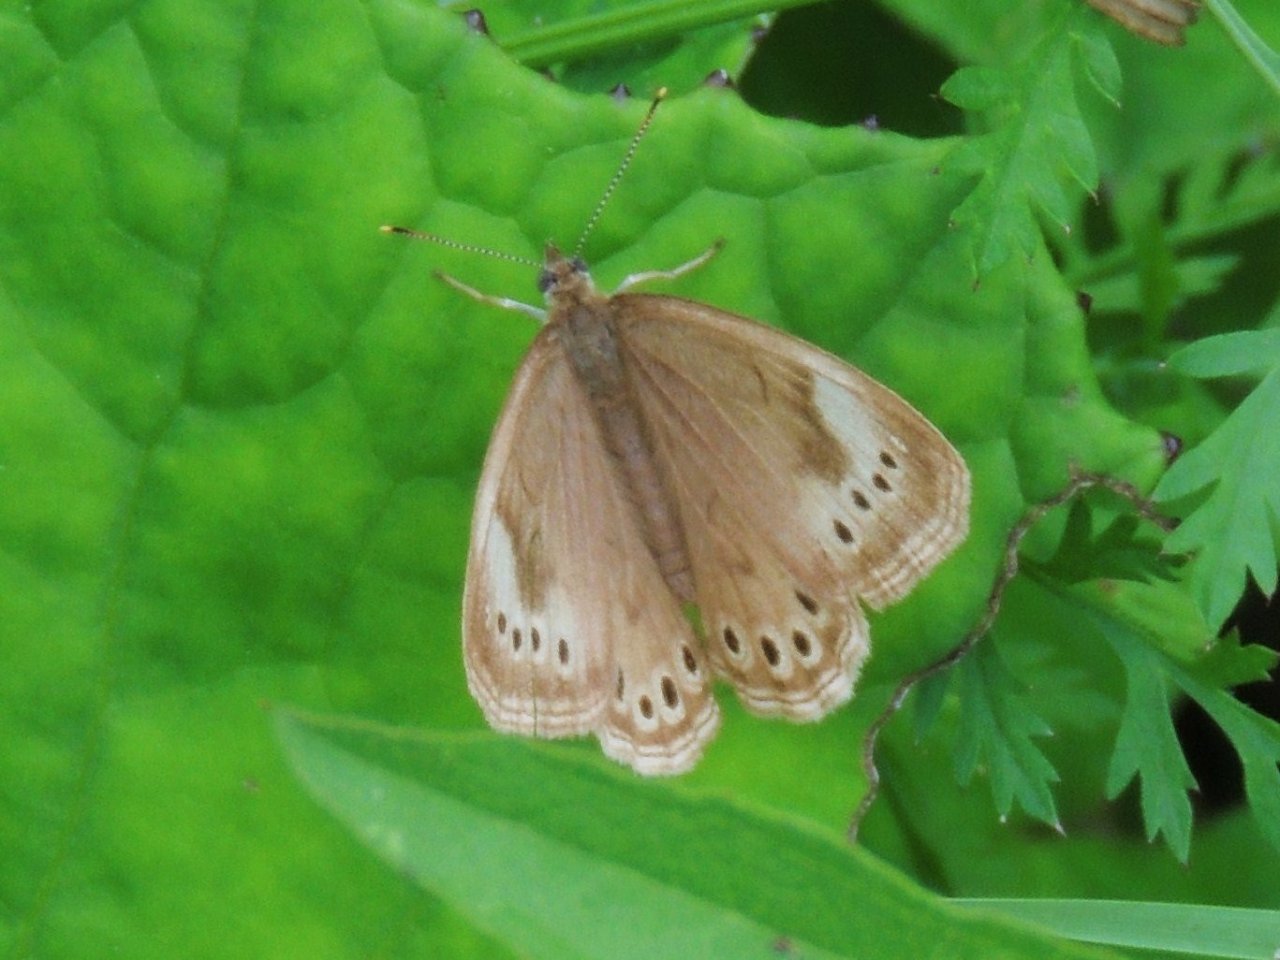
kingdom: Animalia
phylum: Arthropoda
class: Insecta
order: Lepidoptera
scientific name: Lepidoptera
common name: Butterflies
